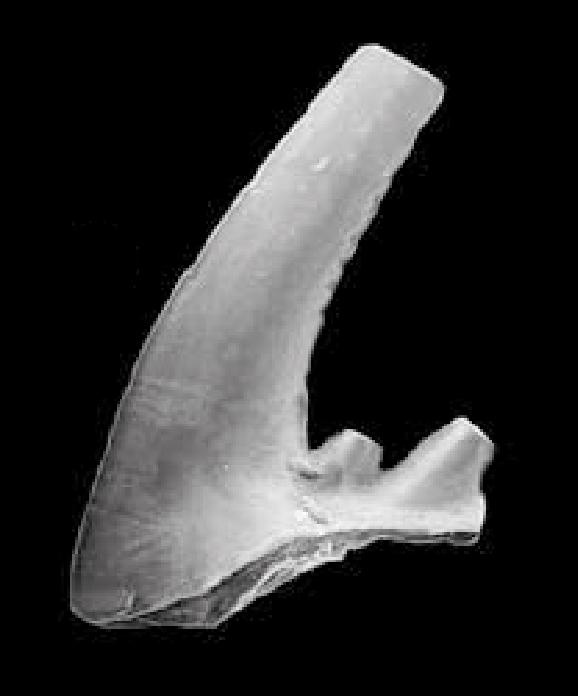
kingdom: Animalia
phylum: Chordata
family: Cordylodontidae
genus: Cordylodus
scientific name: Cordylodus angulatus
